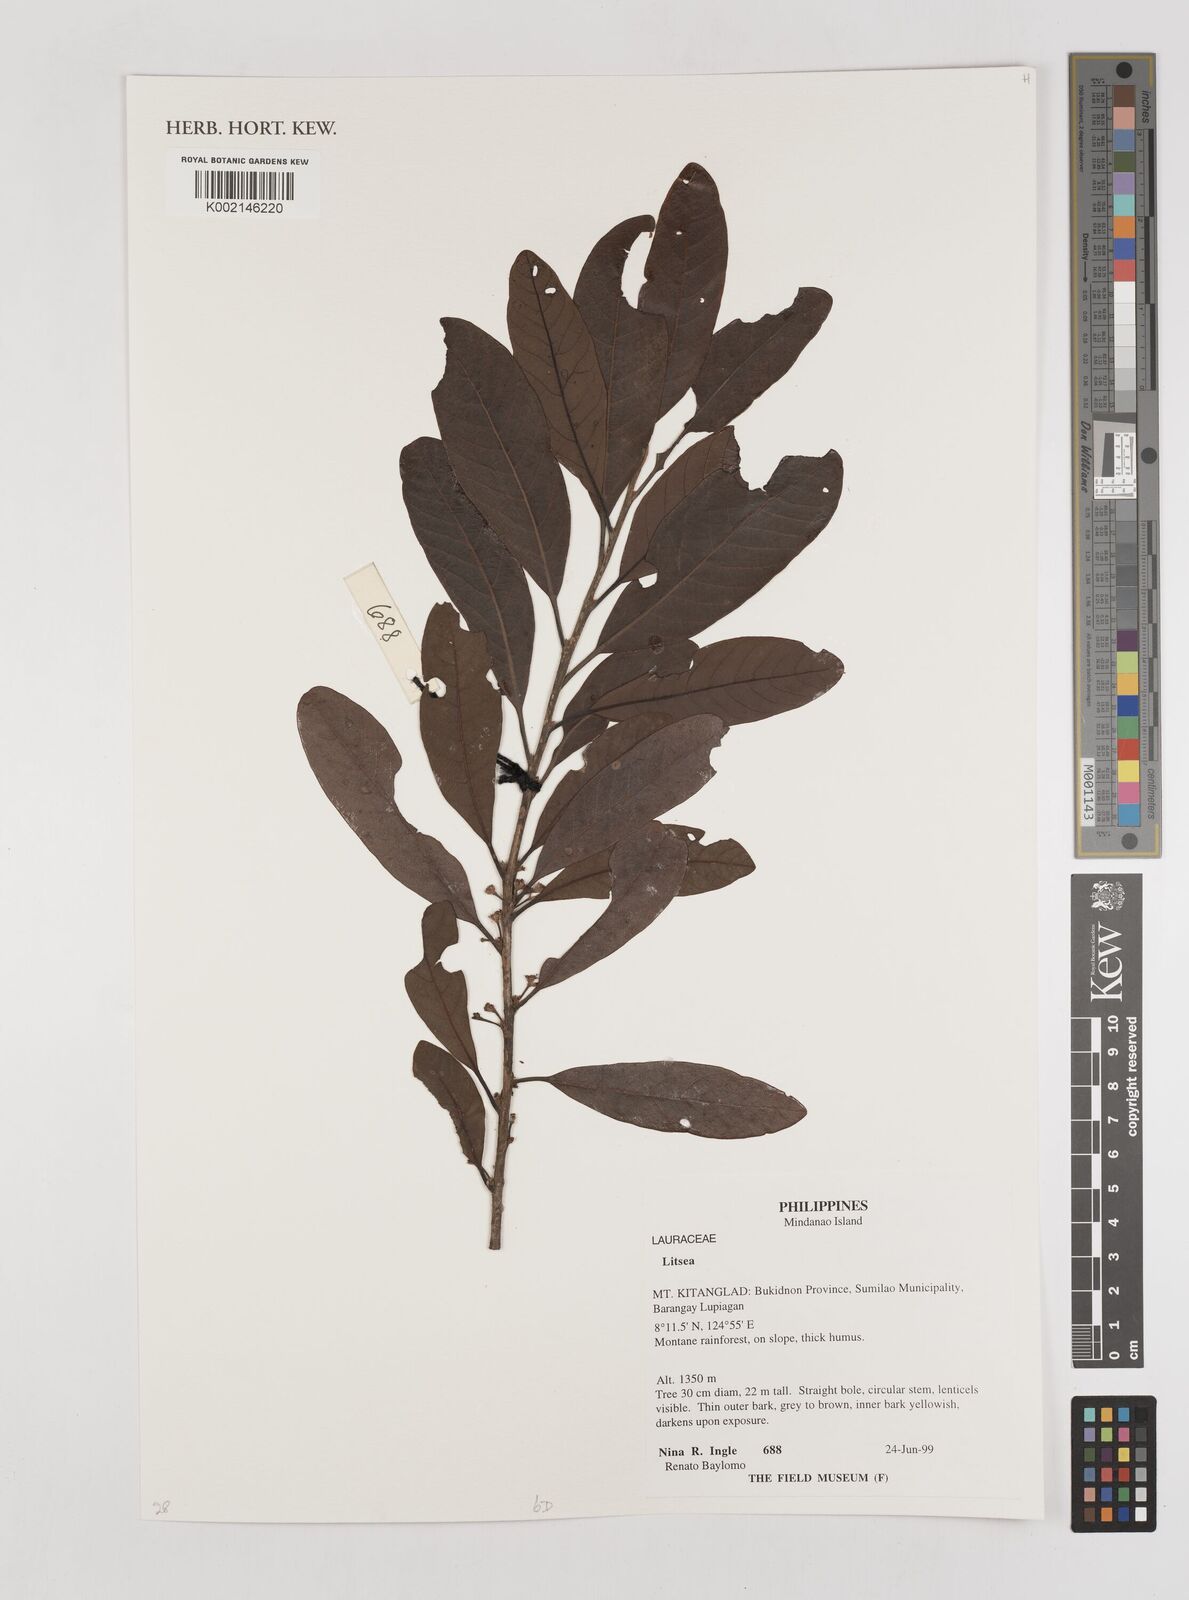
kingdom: Plantae
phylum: Tracheophyta
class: Magnoliopsida
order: Laurales
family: Lauraceae
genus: Litsea
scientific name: Litsea
